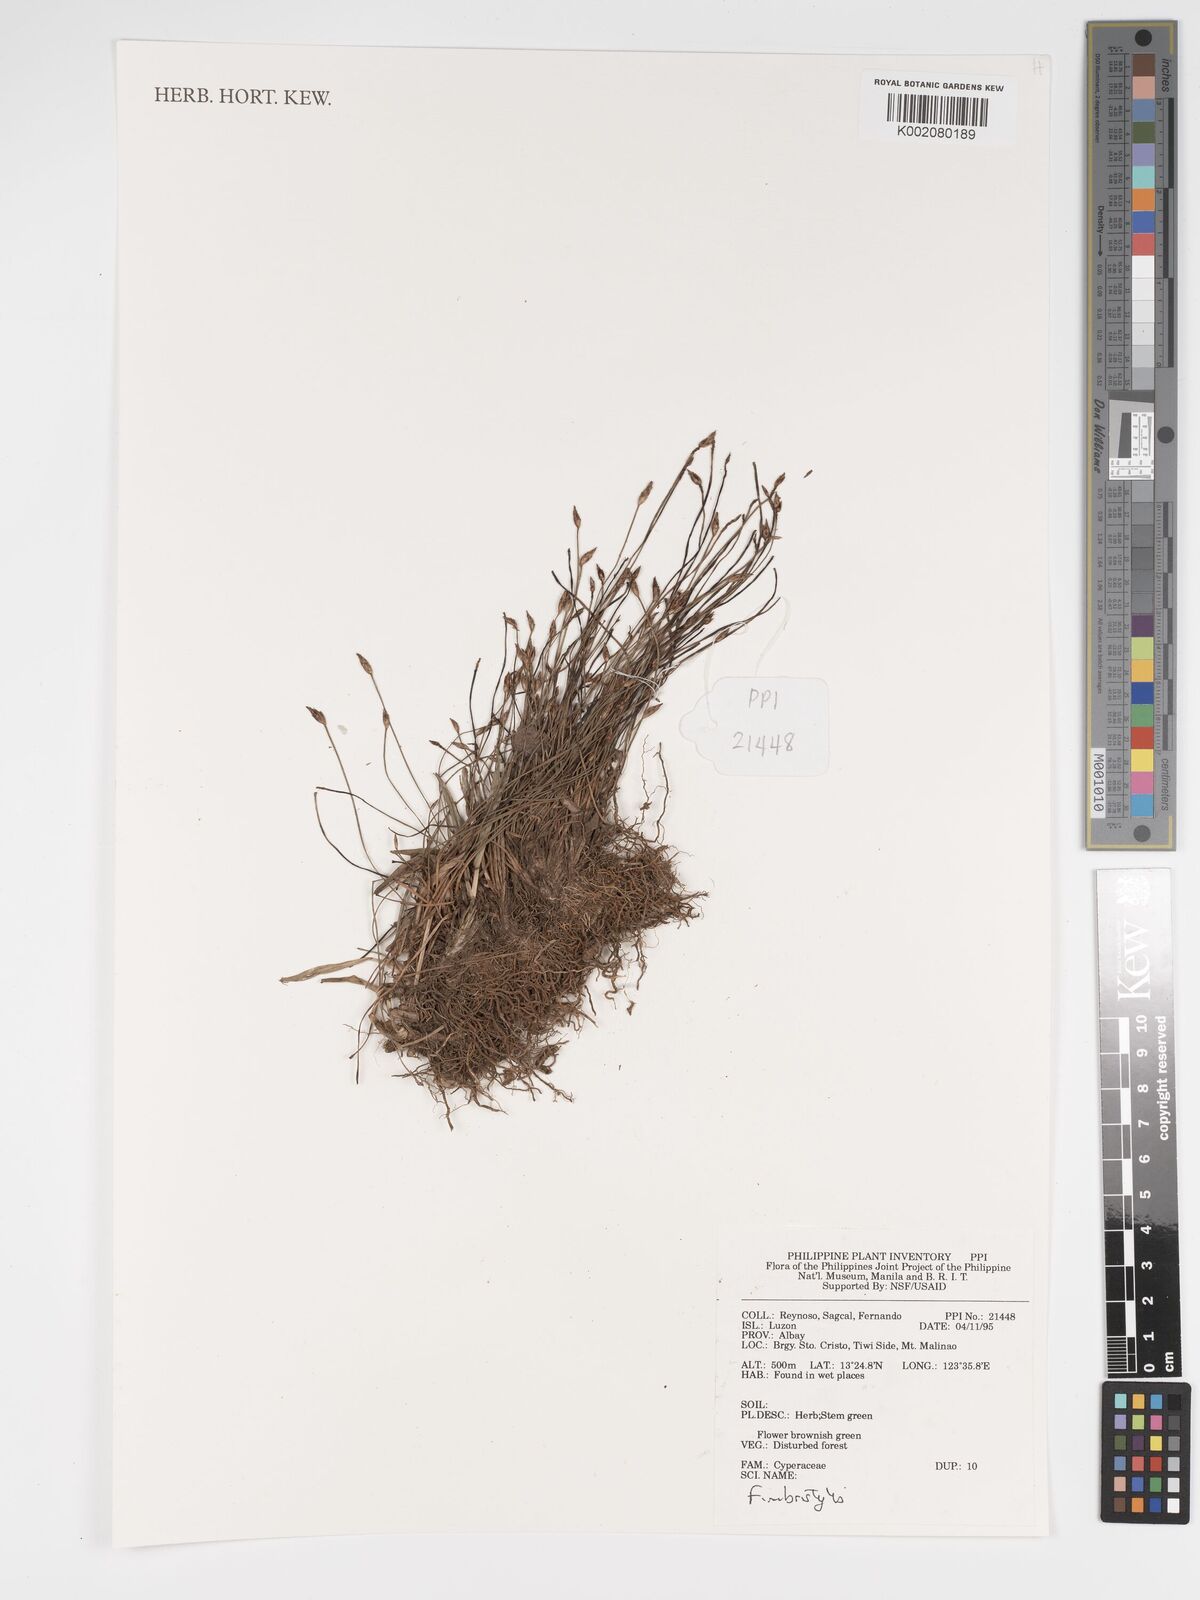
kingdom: Plantae
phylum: Tracheophyta
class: Liliopsida
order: Poales
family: Cyperaceae
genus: Fimbristylis
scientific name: Fimbristylis
